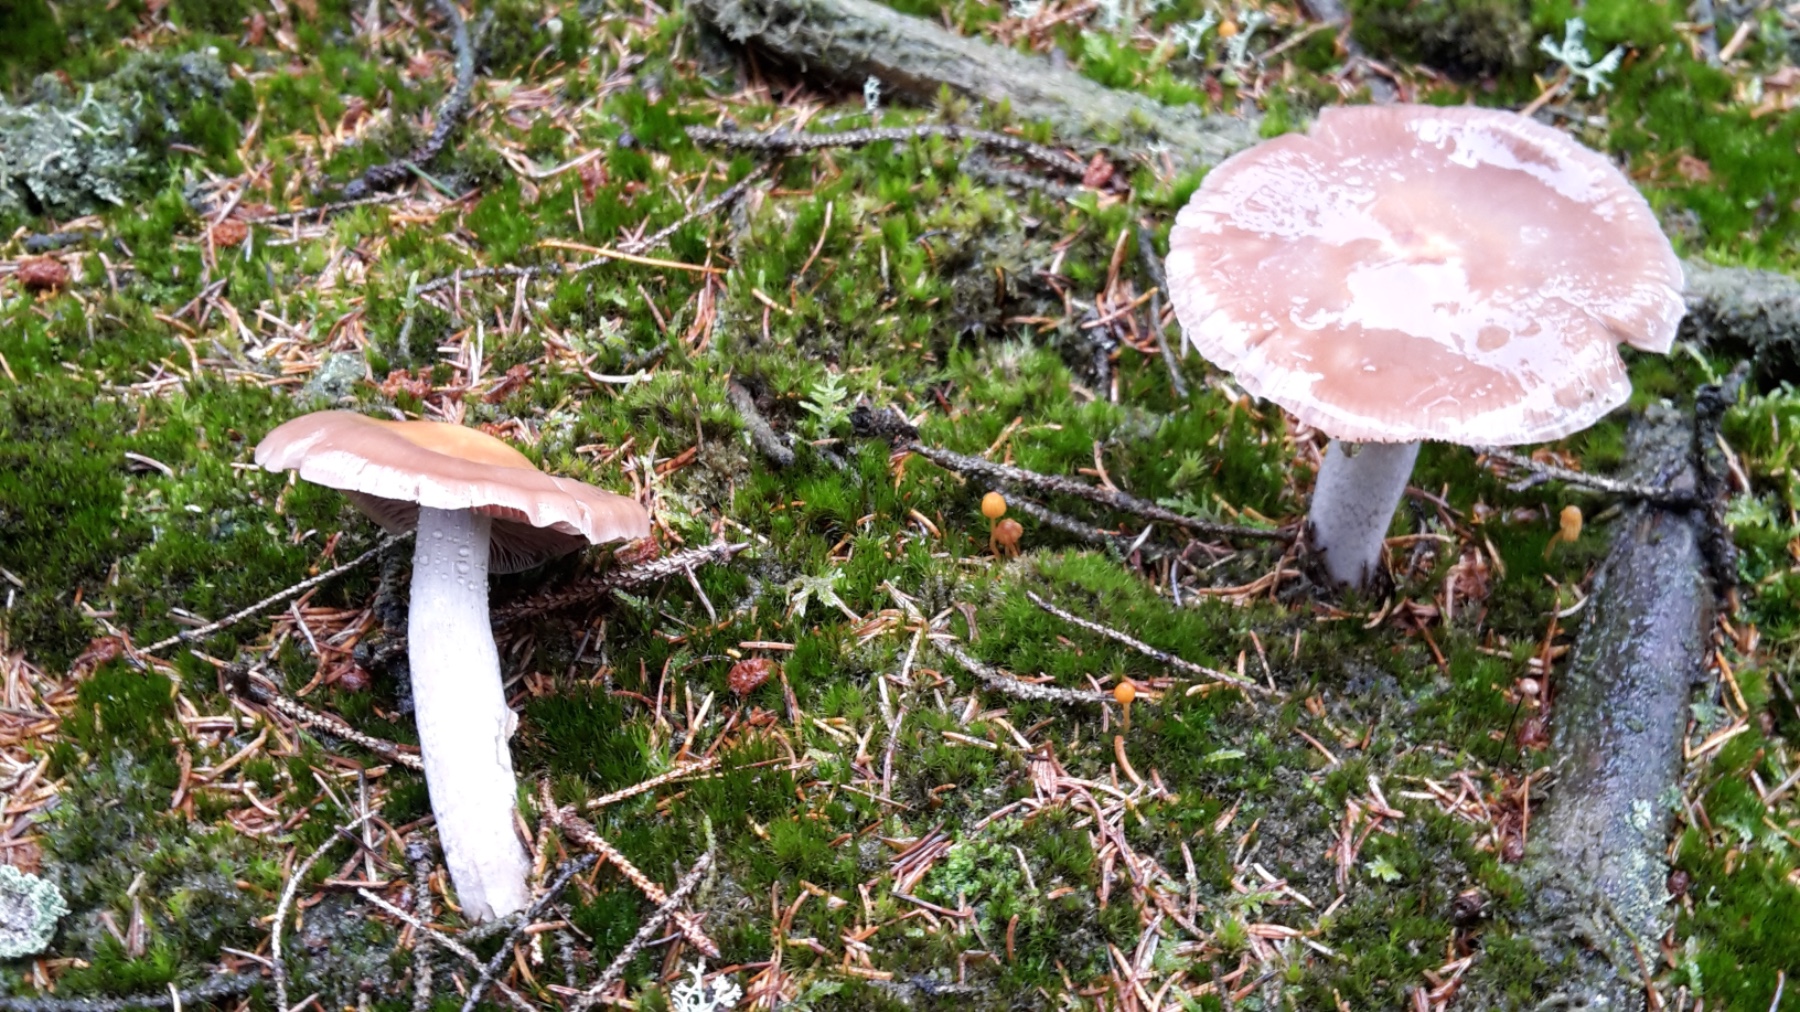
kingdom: Fungi
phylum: Basidiomycota
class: Agaricomycetes
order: Agaricales
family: Cortinariaceae
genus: Cortinarius
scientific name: Cortinarius stillatitius
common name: honningduftende slørhat
